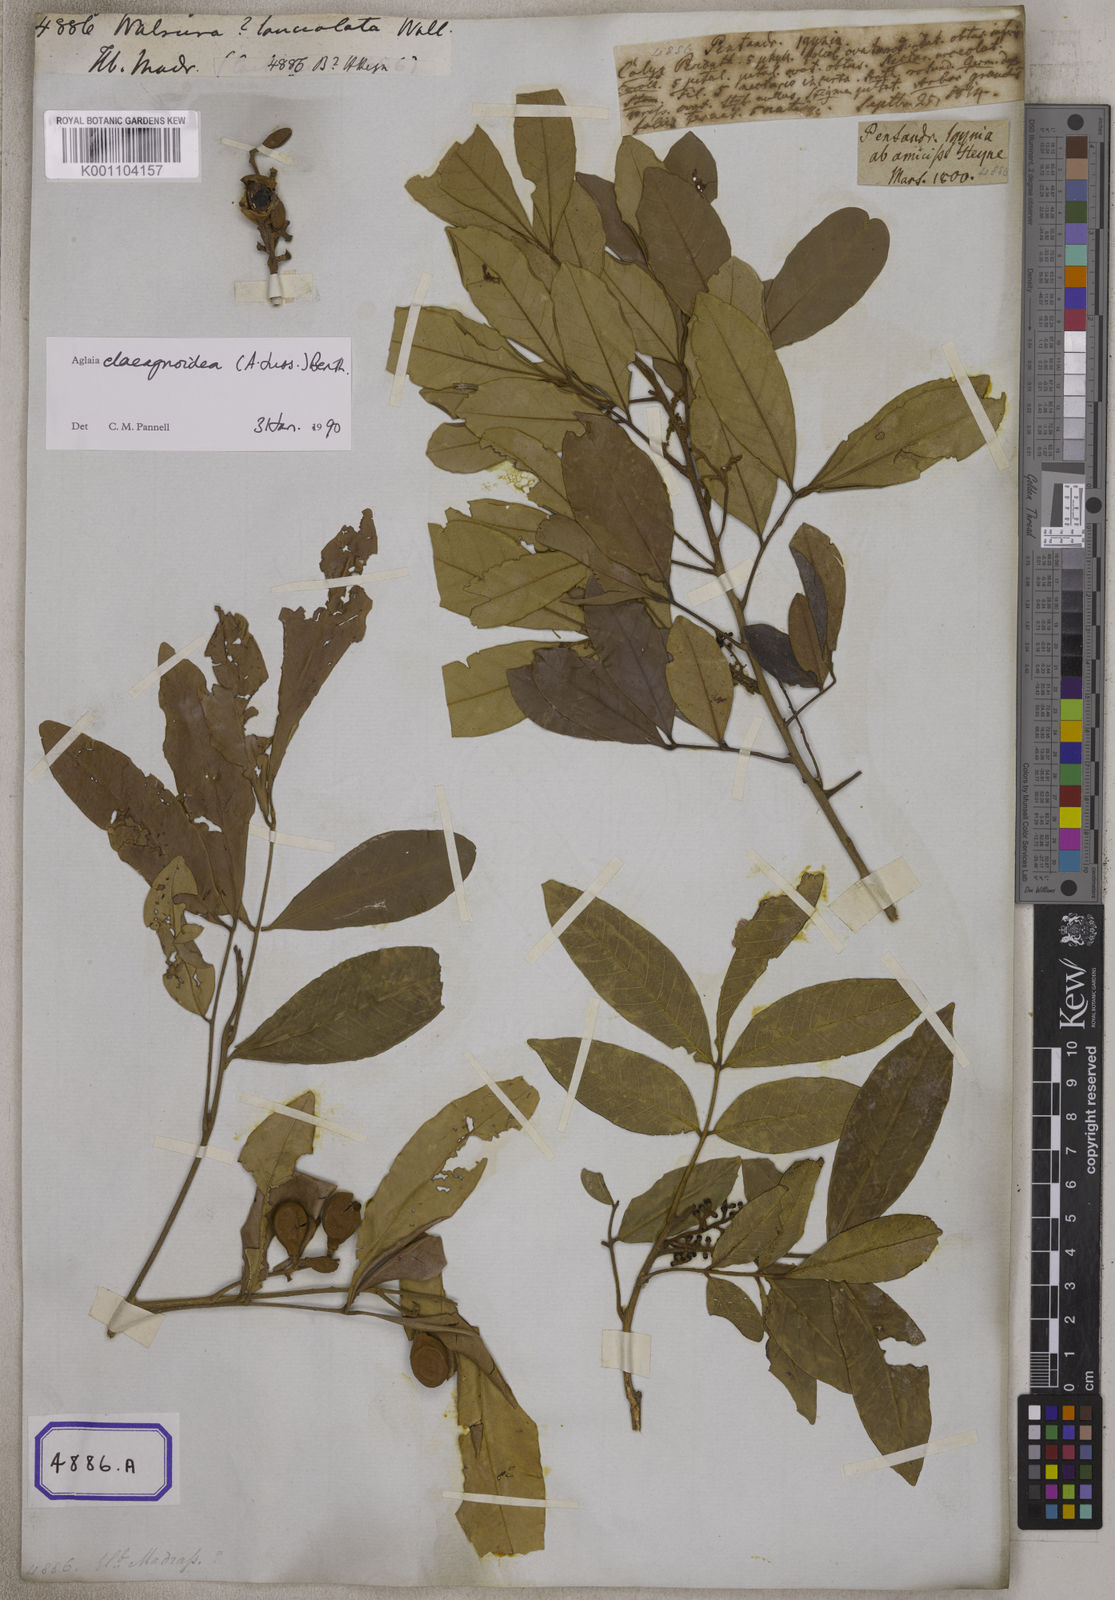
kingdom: Plantae
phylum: Tracheophyta
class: Magnoliopsida
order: Sapindales
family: Meliaceae
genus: Aglaia
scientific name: Aglaia elaeagnoidea
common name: Droopyleaf
